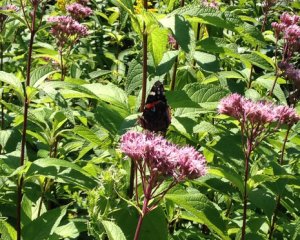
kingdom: Animalia
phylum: Arthropoda
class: Insecta
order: Lepidoptera
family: Nymphalidae
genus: Vanessa
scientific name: Vanessa atalanta
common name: Red Admiral
